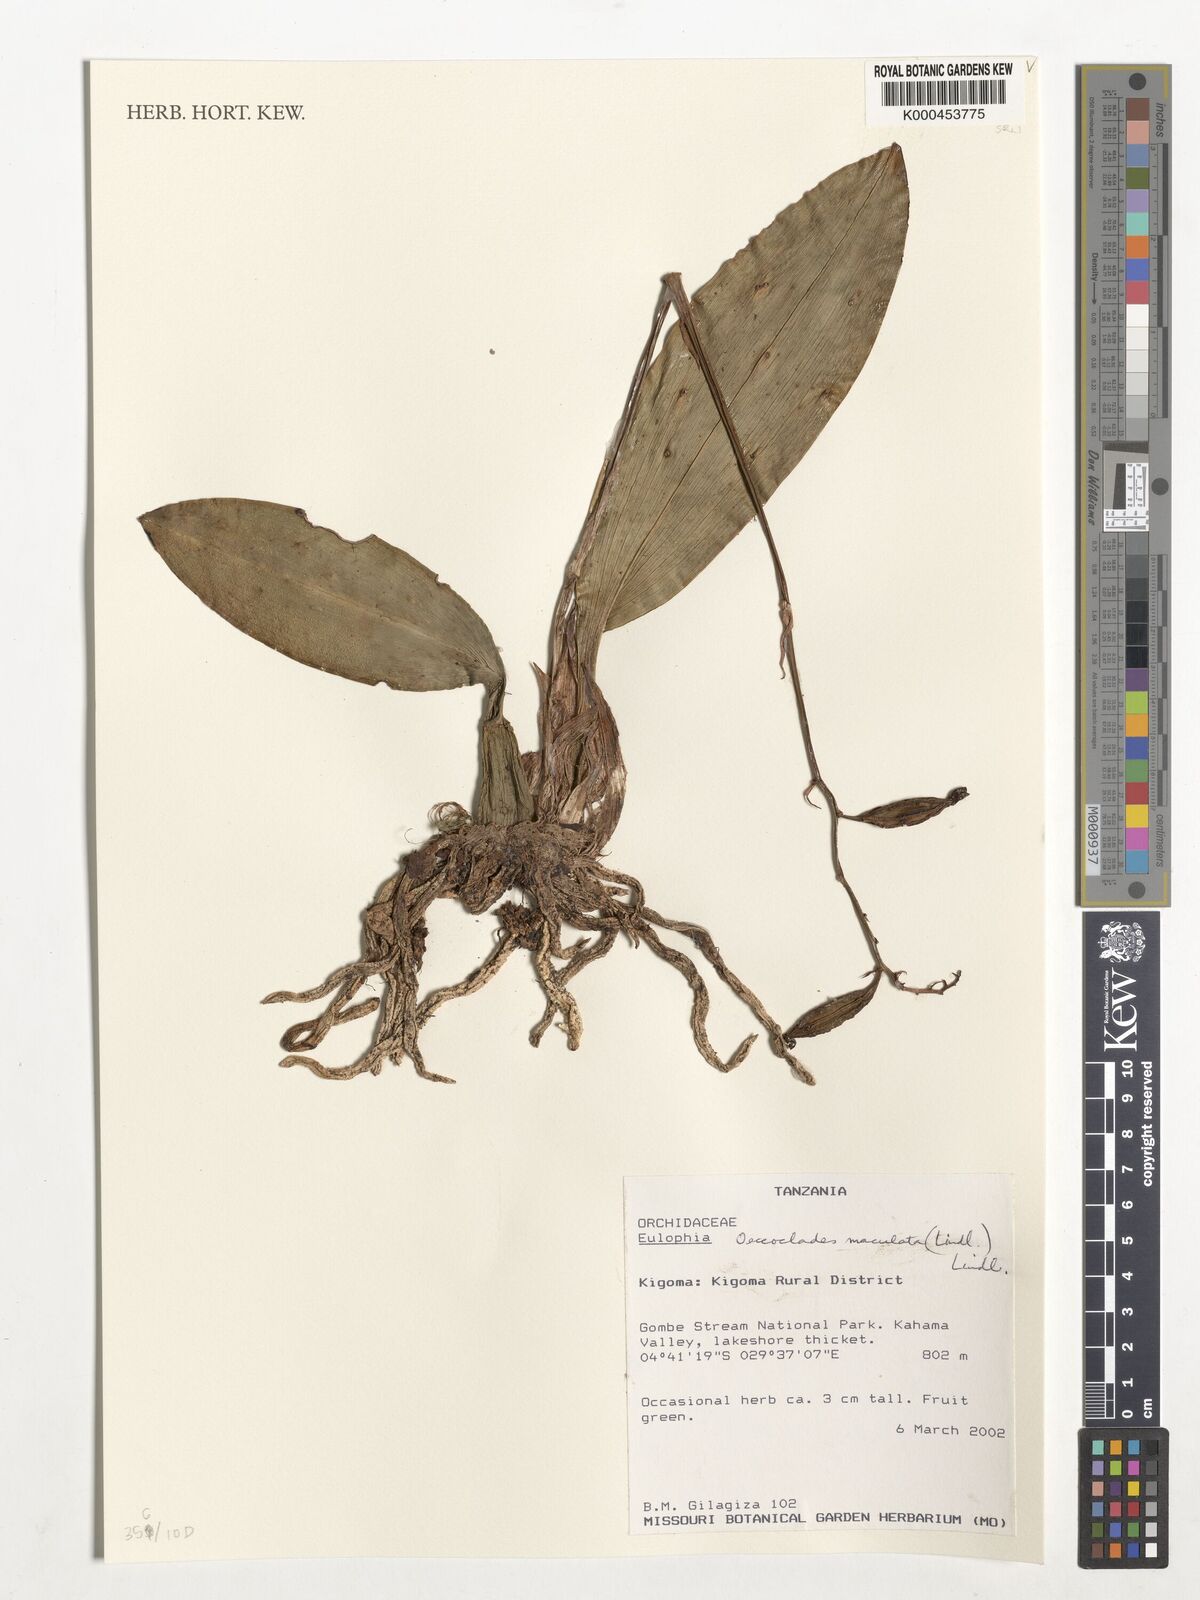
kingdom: Plantae
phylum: Tracheophyta
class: Liliopsida
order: Asparagales
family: Orchidaceae
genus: Eulophia
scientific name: Eulophia maculata
